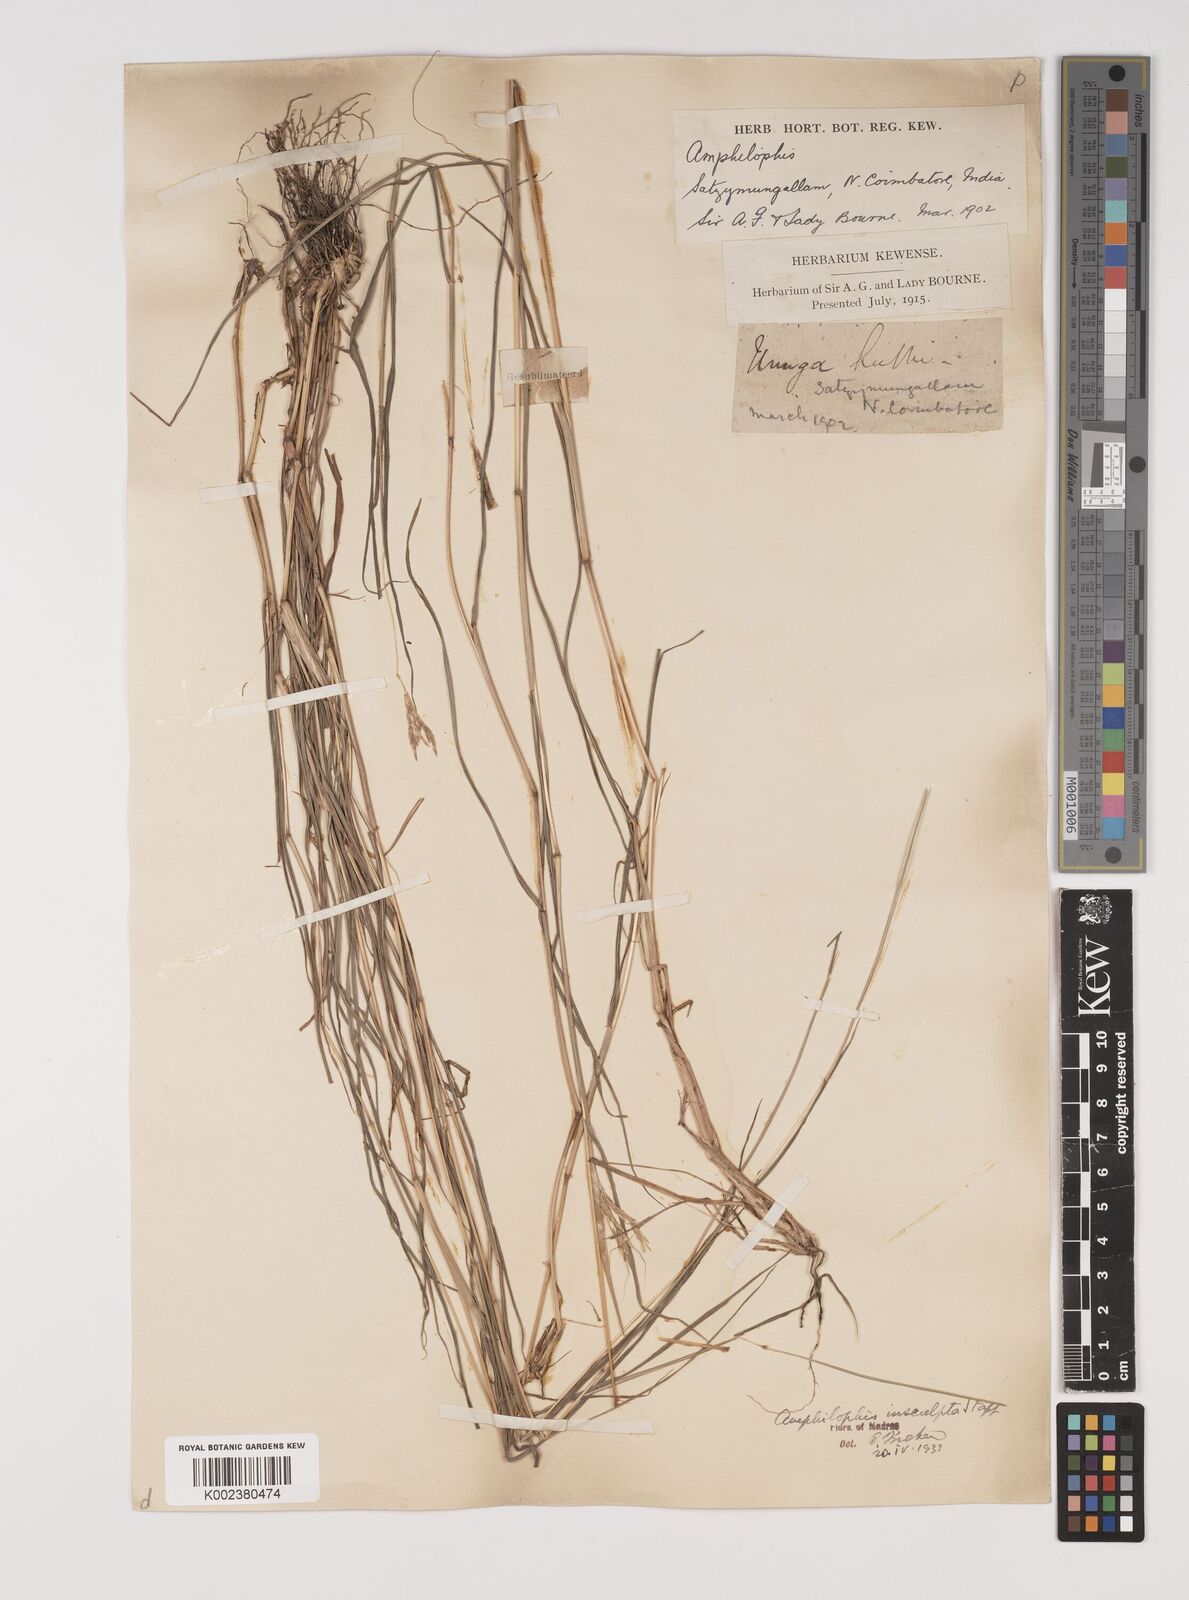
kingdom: Plantae
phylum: Tracheophyta
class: Liliopsida
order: Poales
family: Poaceae
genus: Bothriochloa
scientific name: Bothriochloa insculpta
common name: Creeping-bluegrass
